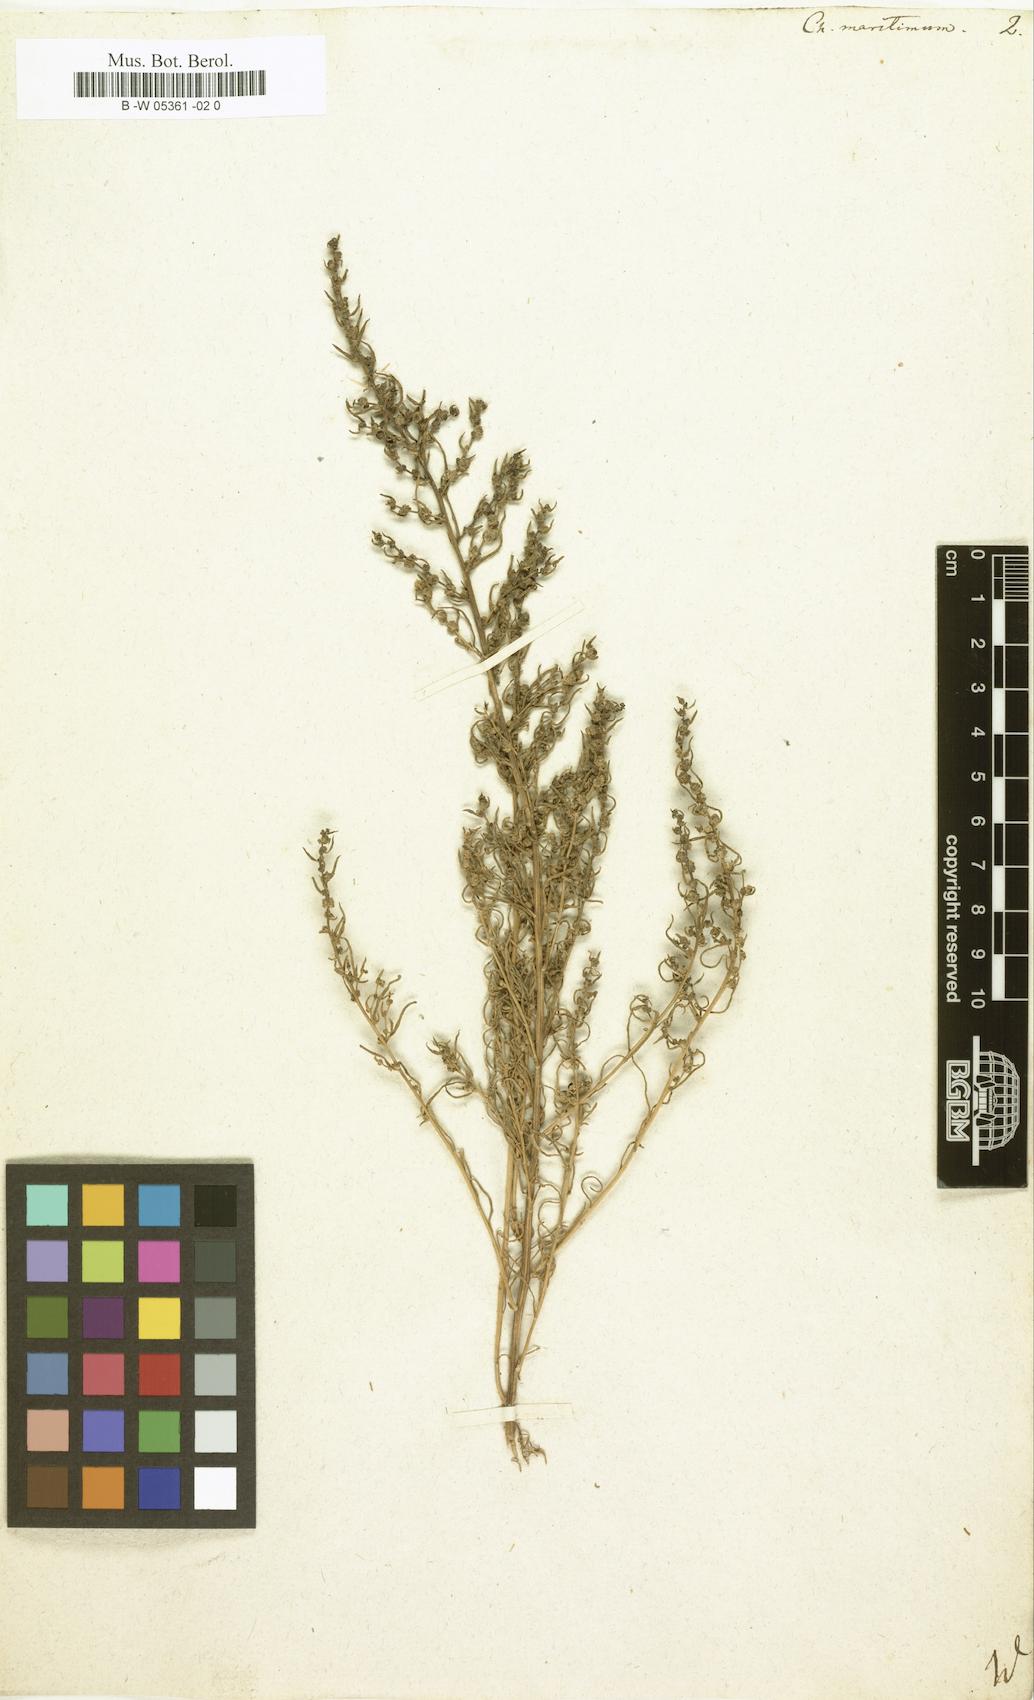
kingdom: Plantae
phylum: Tracheophyta
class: Magnoliopsida
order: Caryophyllales
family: Amaranthaceae
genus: Suaeda
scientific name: Suaeda
